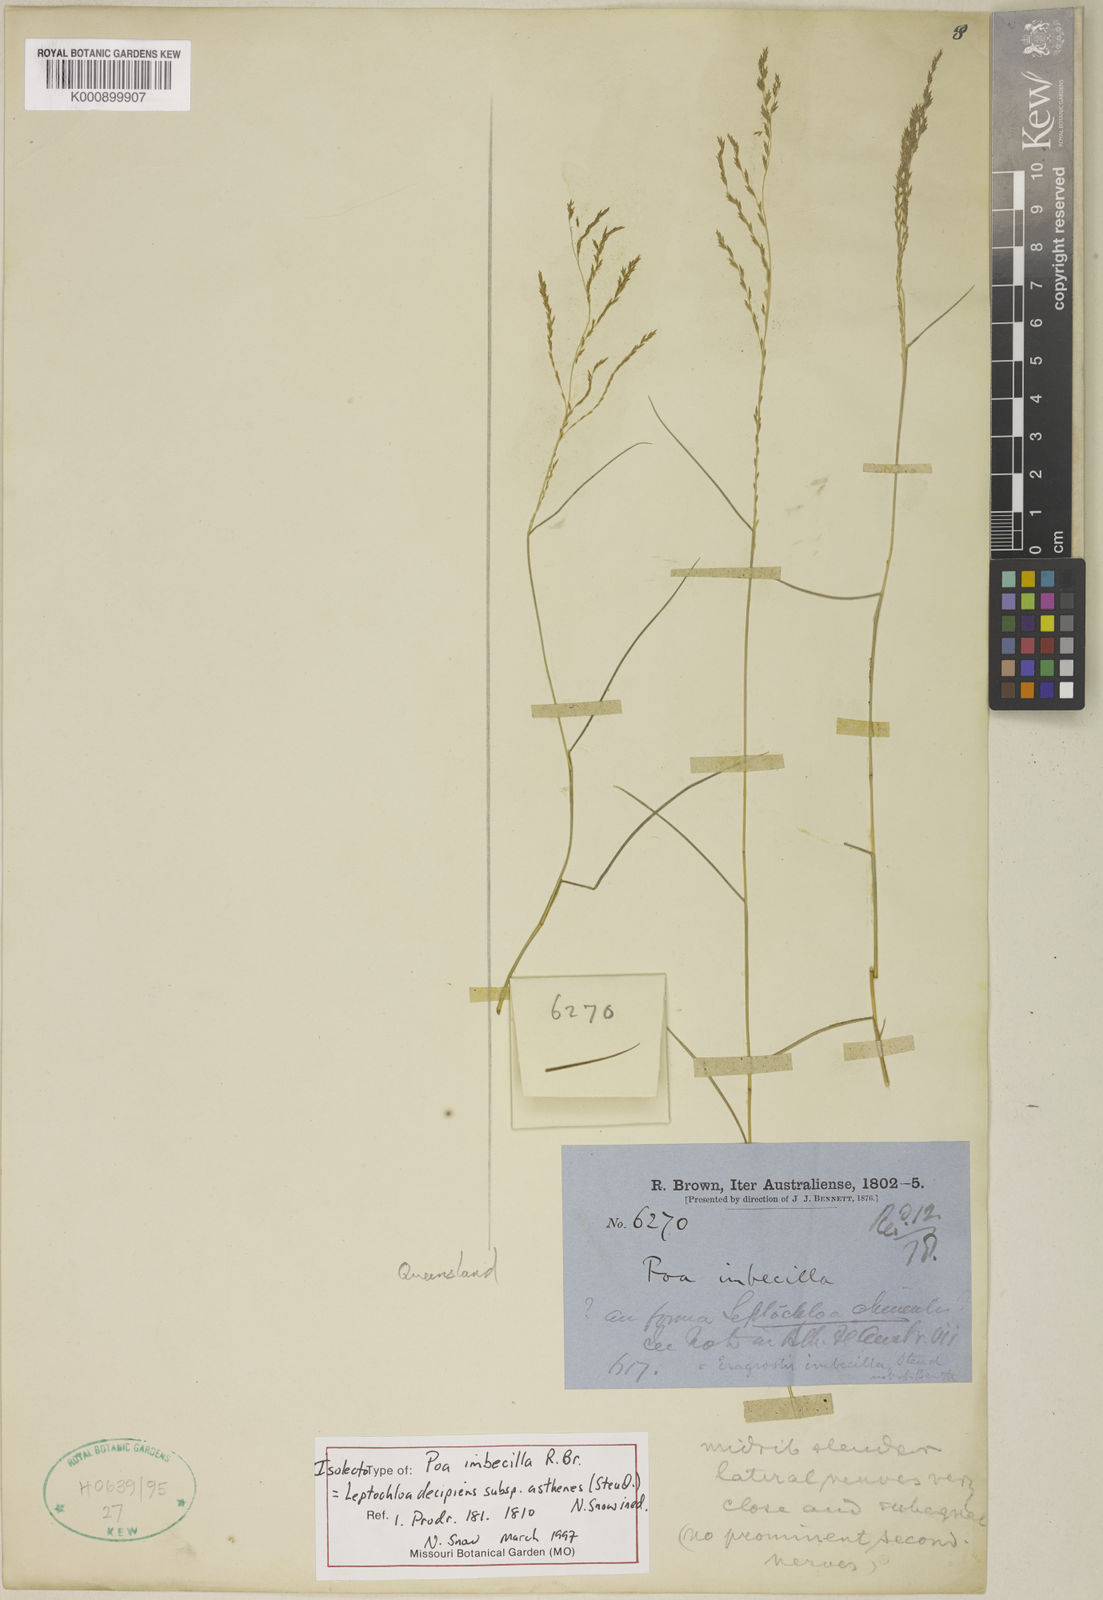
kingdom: Plantae
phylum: Tracheophyta
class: Liliopsida
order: Poales
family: Poaceae
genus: Leptochloa
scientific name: Leptochloa asthenes
